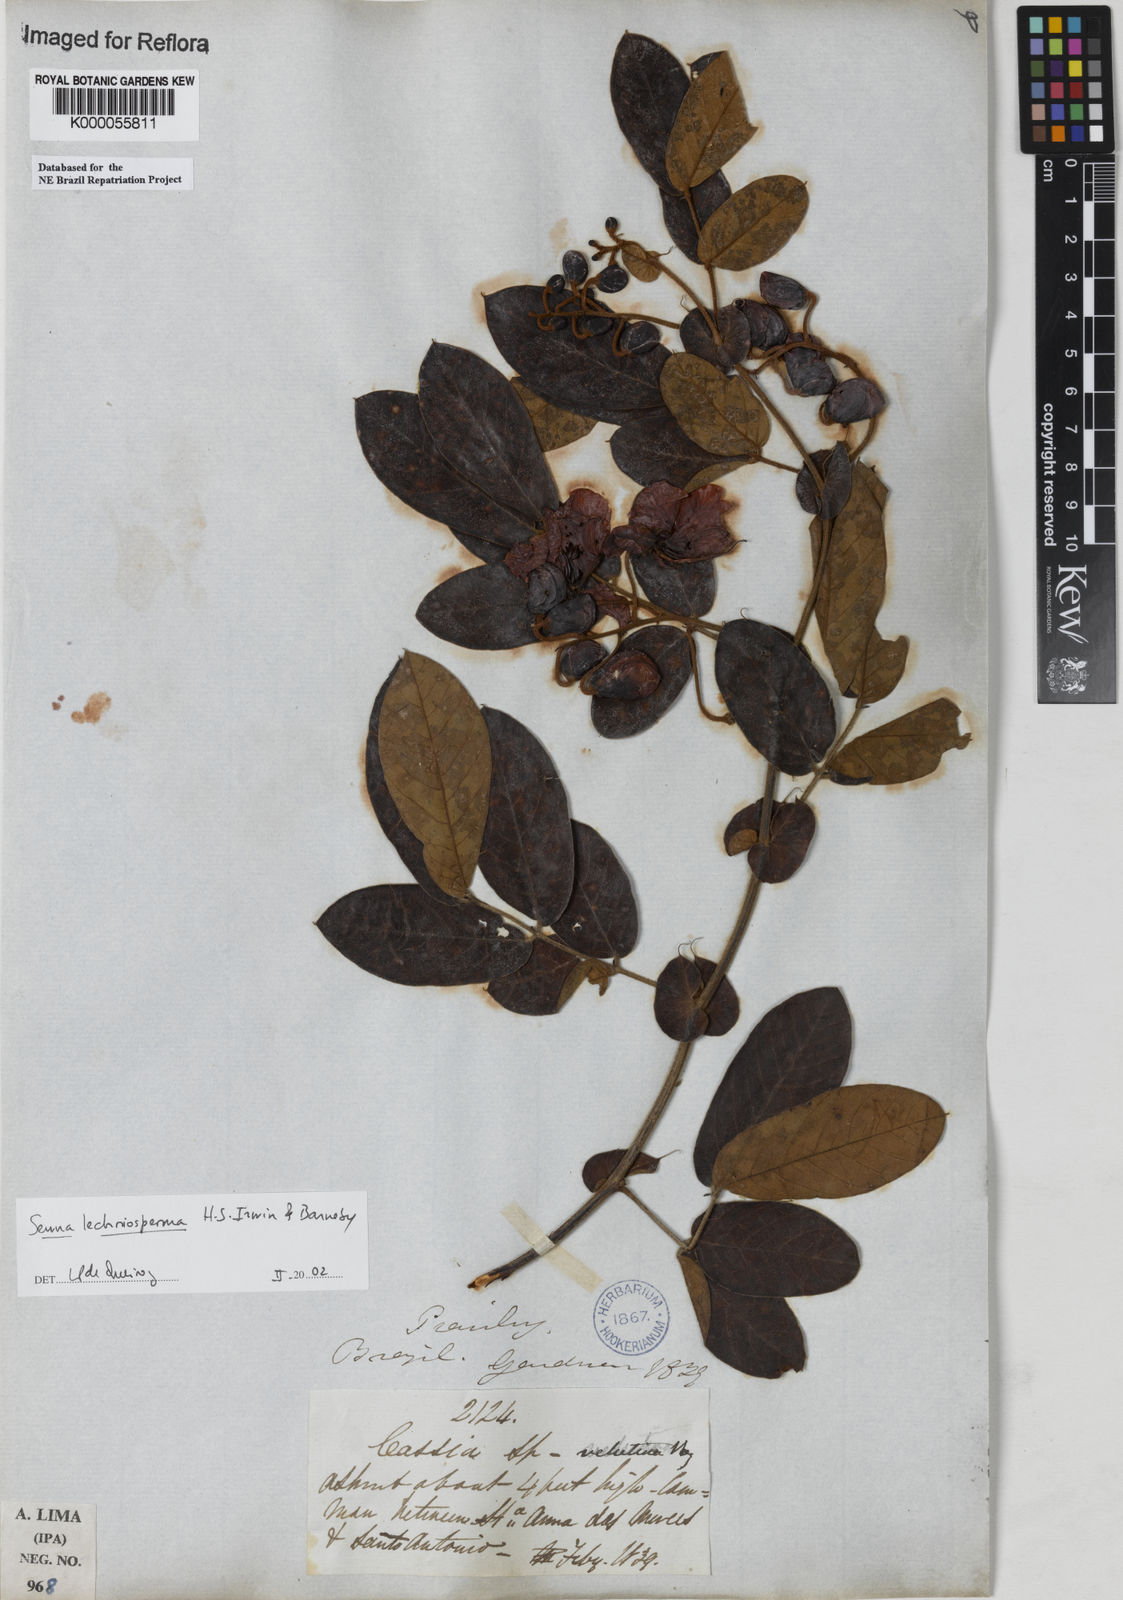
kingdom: Plantae
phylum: Tracheophyta
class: Magnoliopsida
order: Fabales
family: Fabaceae
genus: Senna
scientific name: Senna lechriosperma
